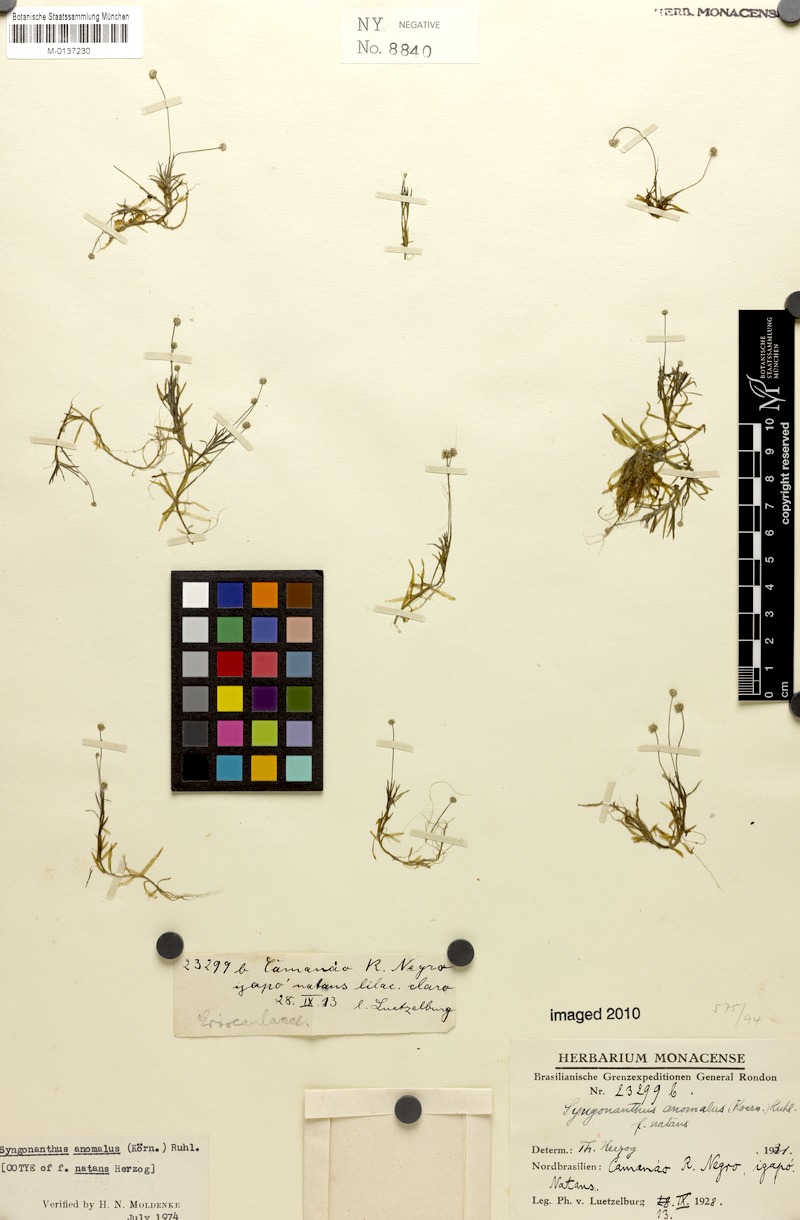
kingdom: Plantae
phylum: Tracheophyta
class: Liliopsida
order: Poales
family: Eriocaulaceae
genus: Syngonanthus
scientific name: Syngonanthus anomalus
